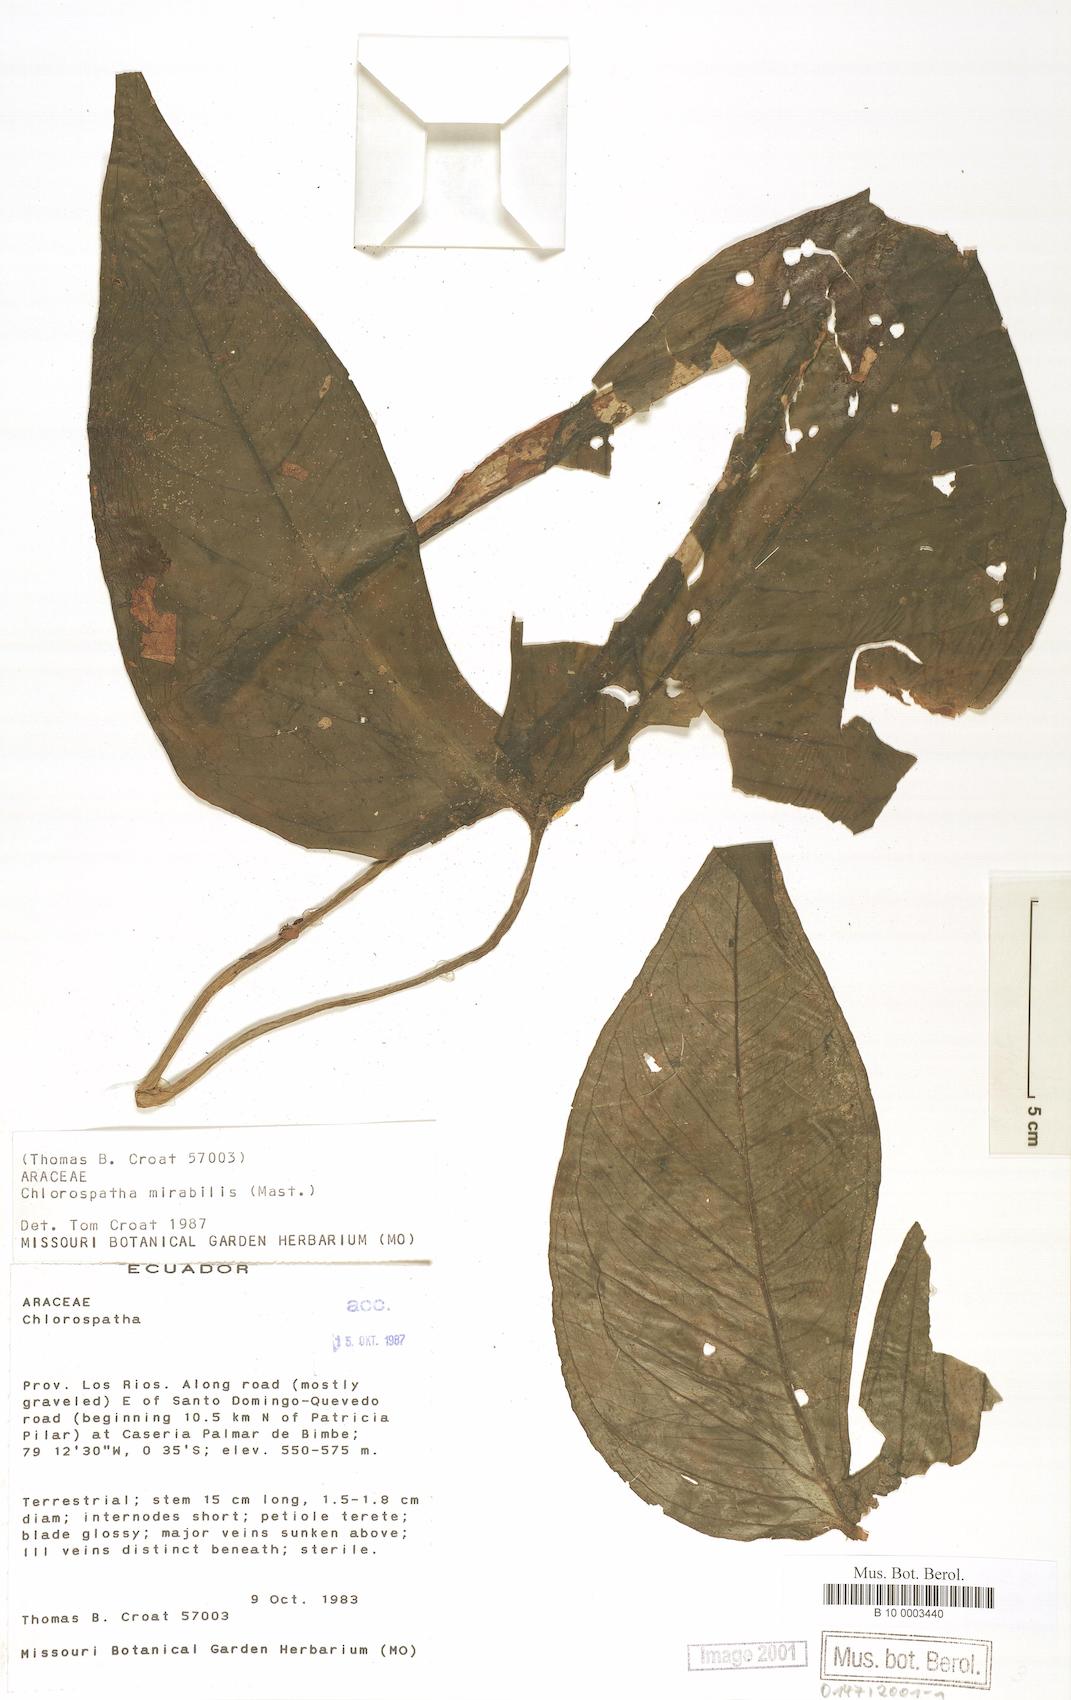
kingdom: Plantae
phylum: Tracheophyta
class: Liliopsida
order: Alismatales
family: Araceae
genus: Chlorospatha
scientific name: Chlorospatha mirabilis
